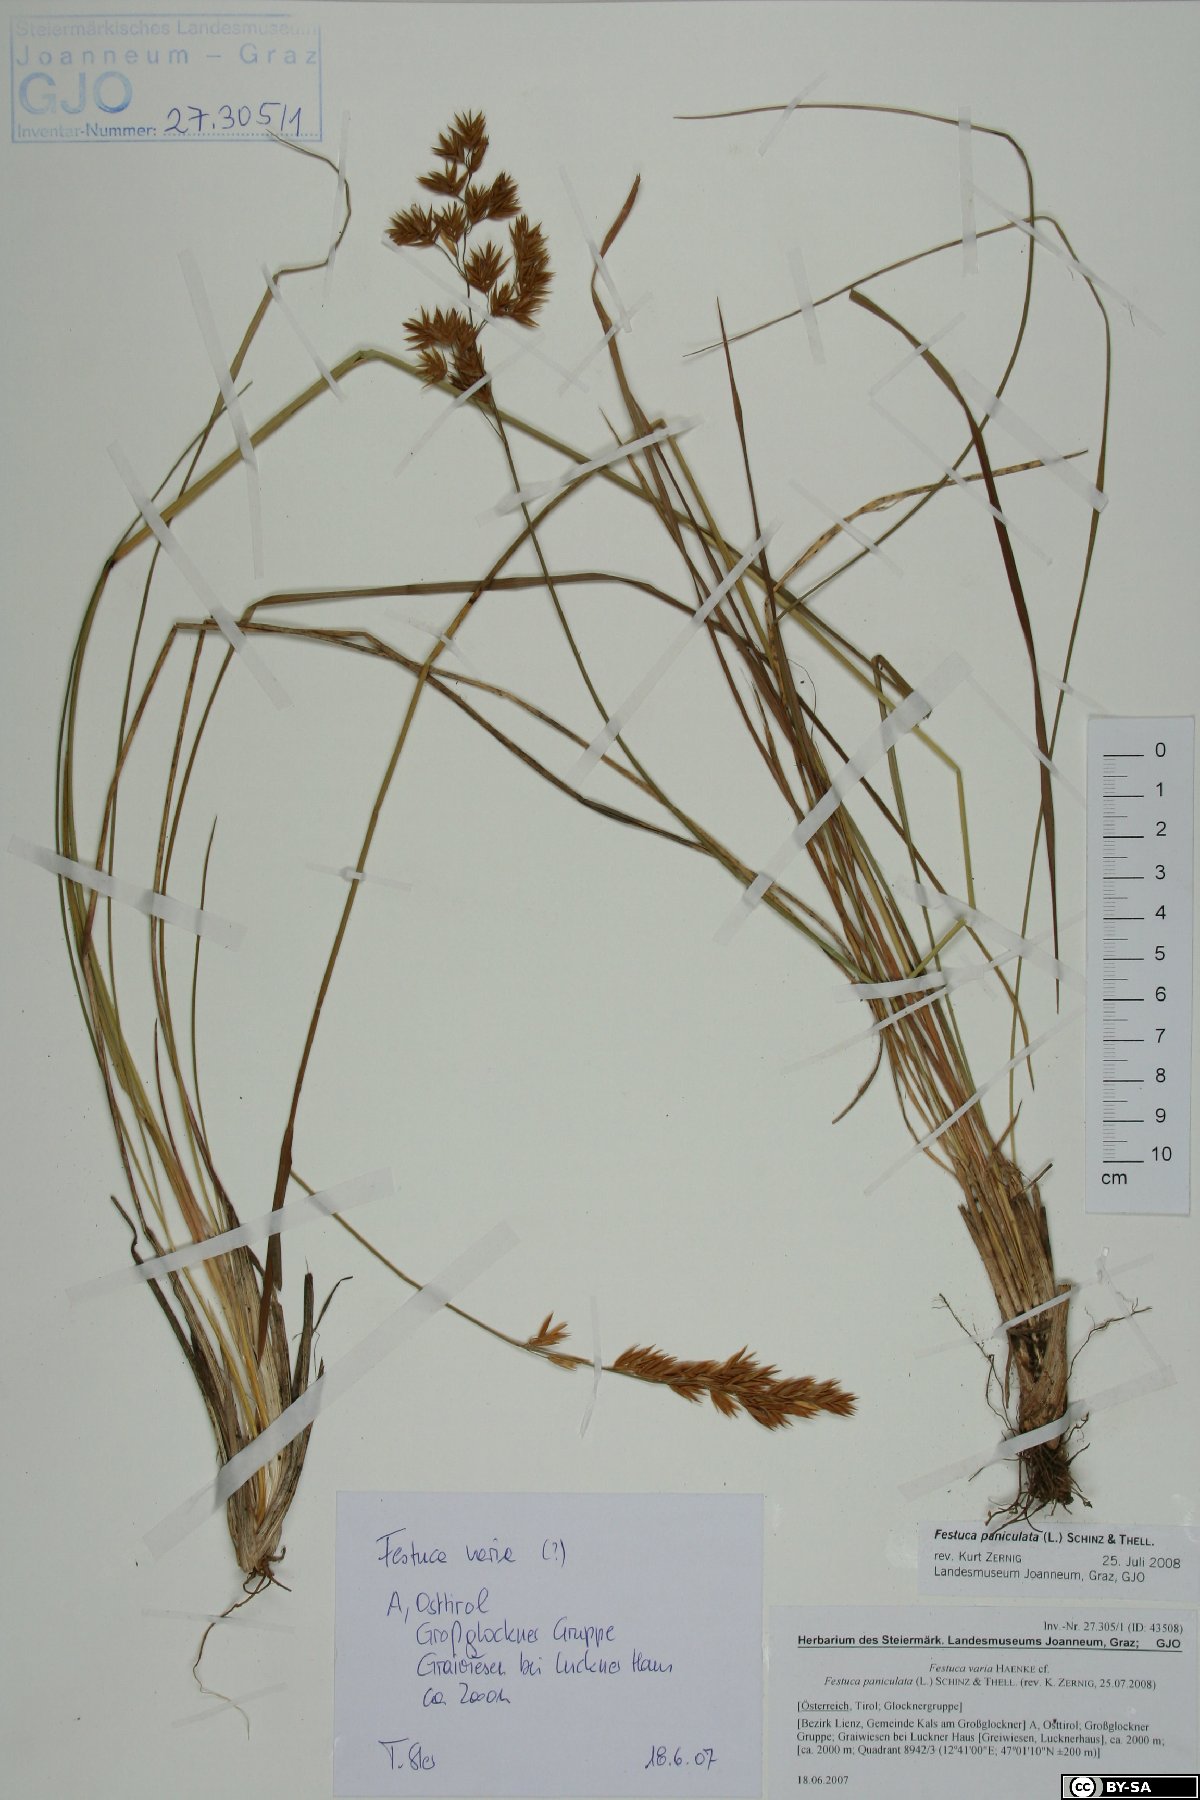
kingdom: Plantae
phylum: Tracheophyta
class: Liliopsida
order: Poales
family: Poaceae
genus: Patzkea
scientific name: Patzkea paniculata
